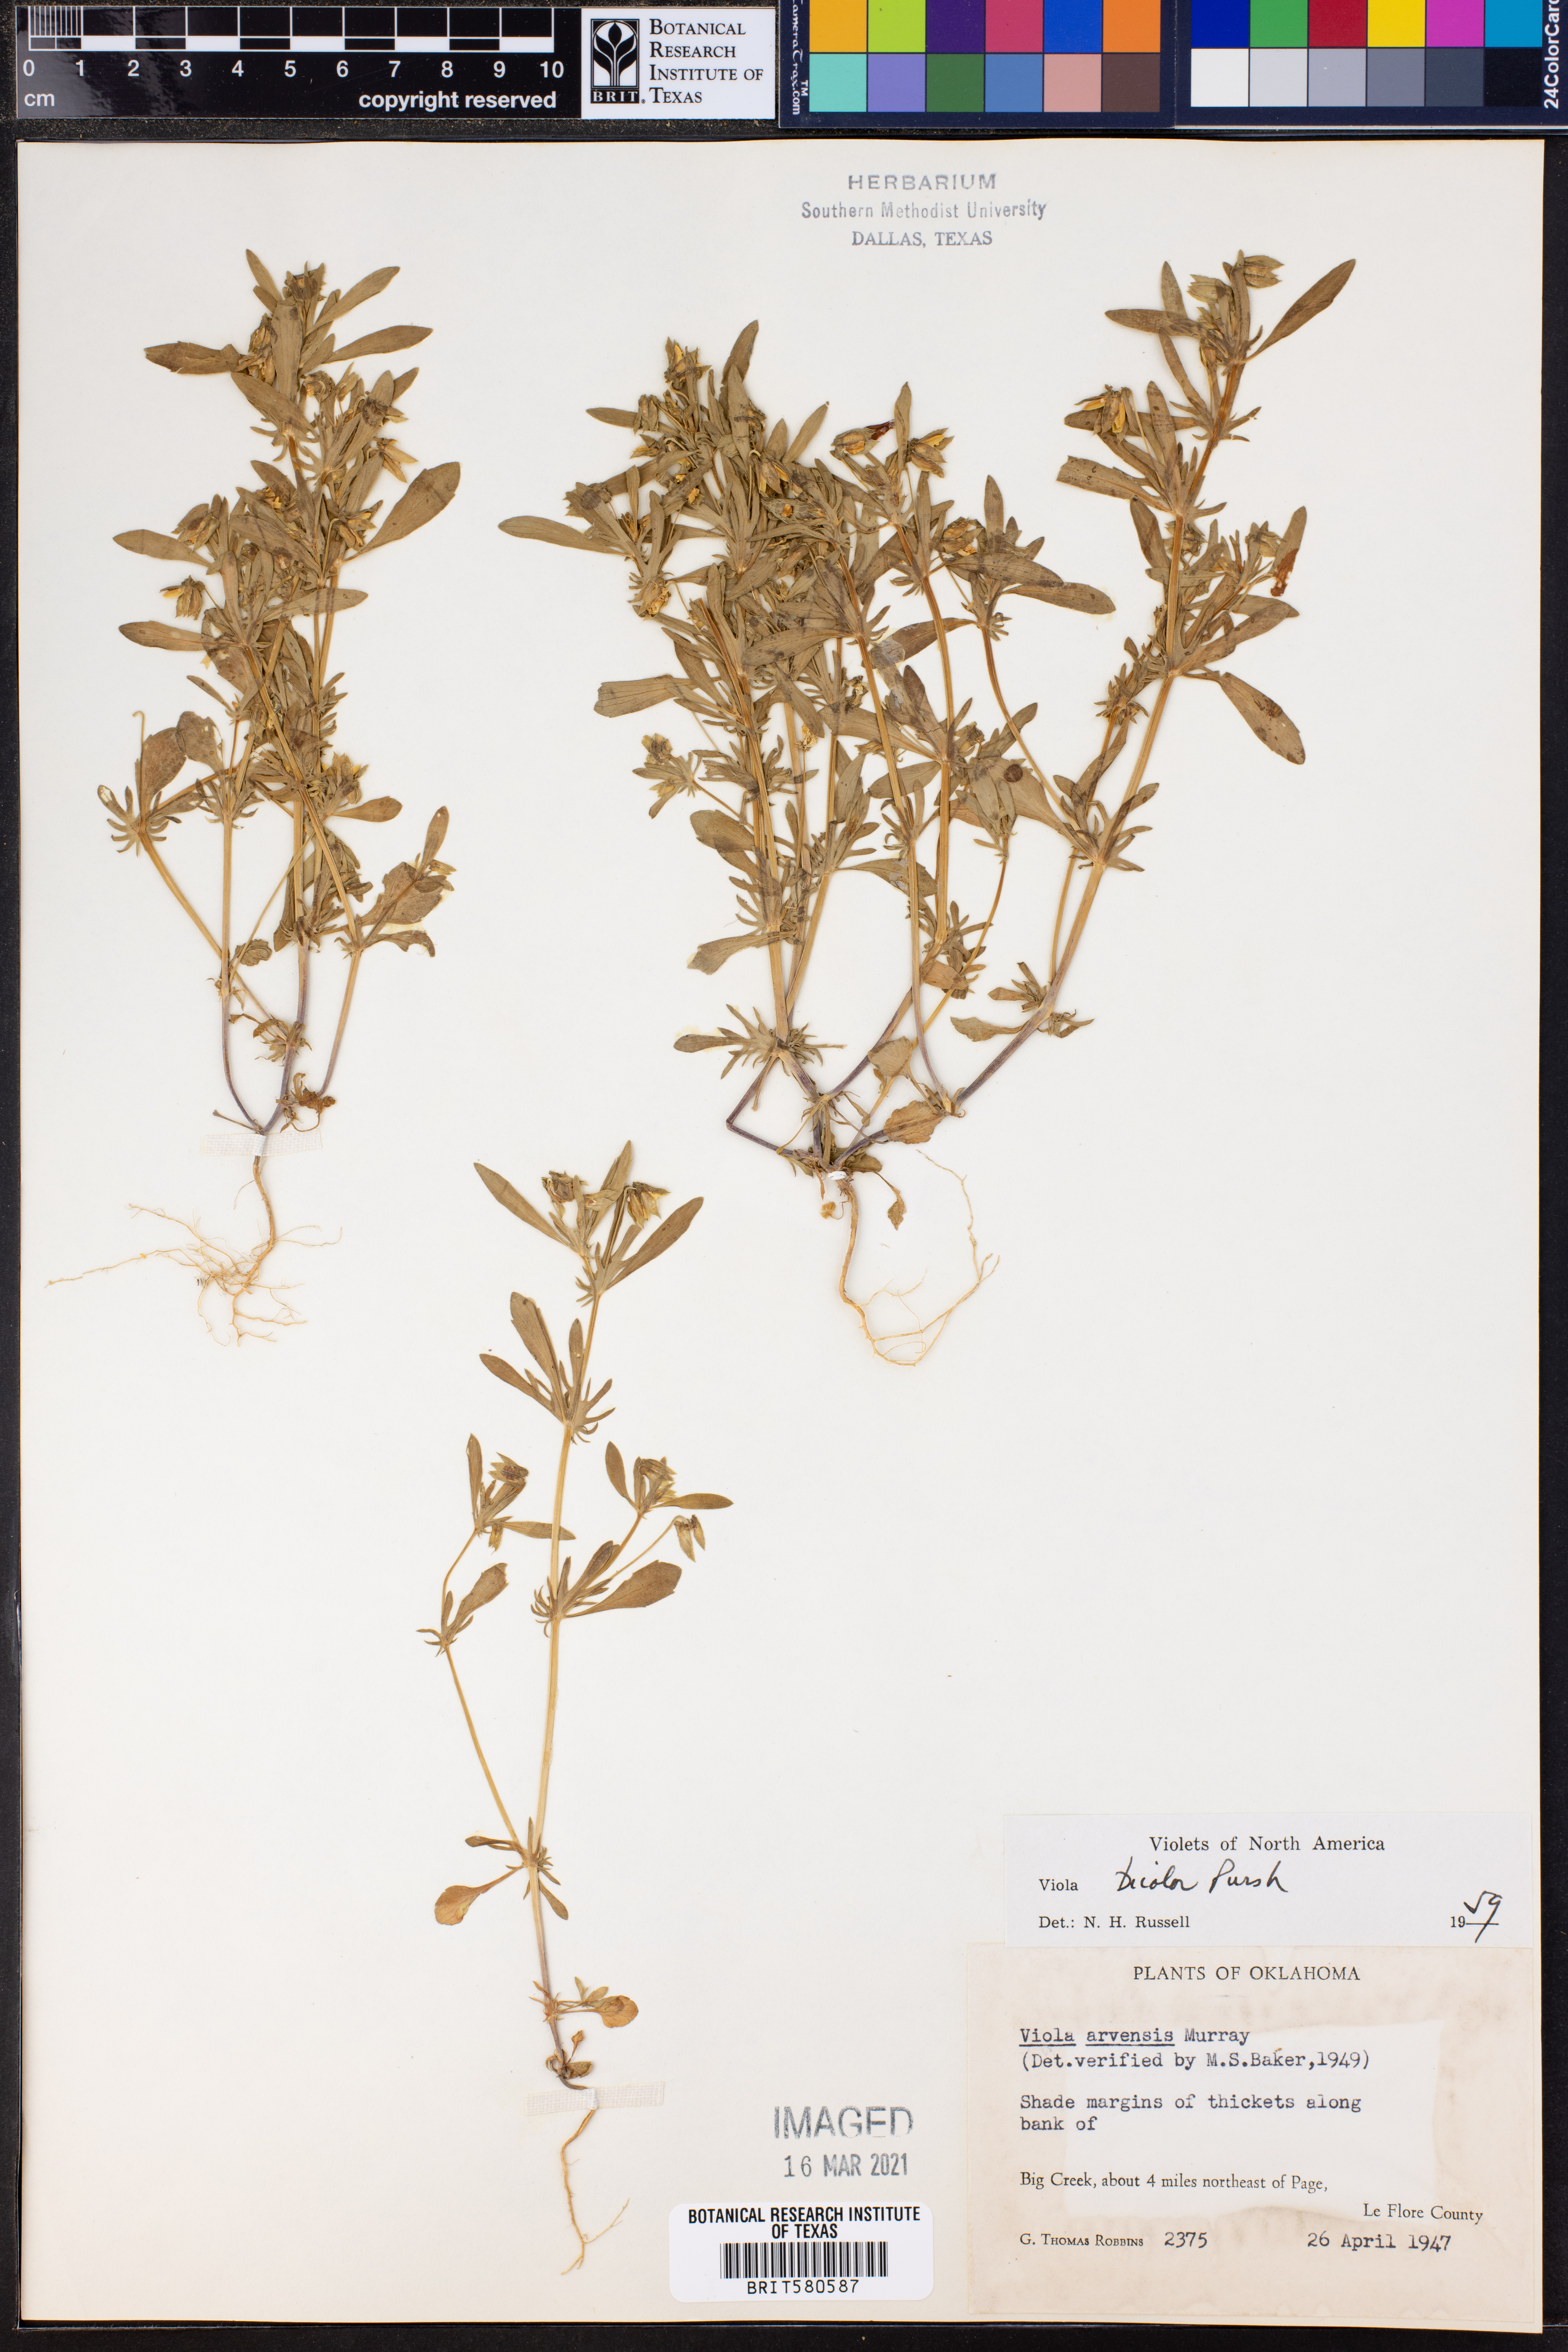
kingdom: Plantae
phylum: Tracheophyta
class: Magnoliopsida
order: Malpighiales
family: Violaceae
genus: Viola
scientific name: Viola rafinesquei
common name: American field pansy
